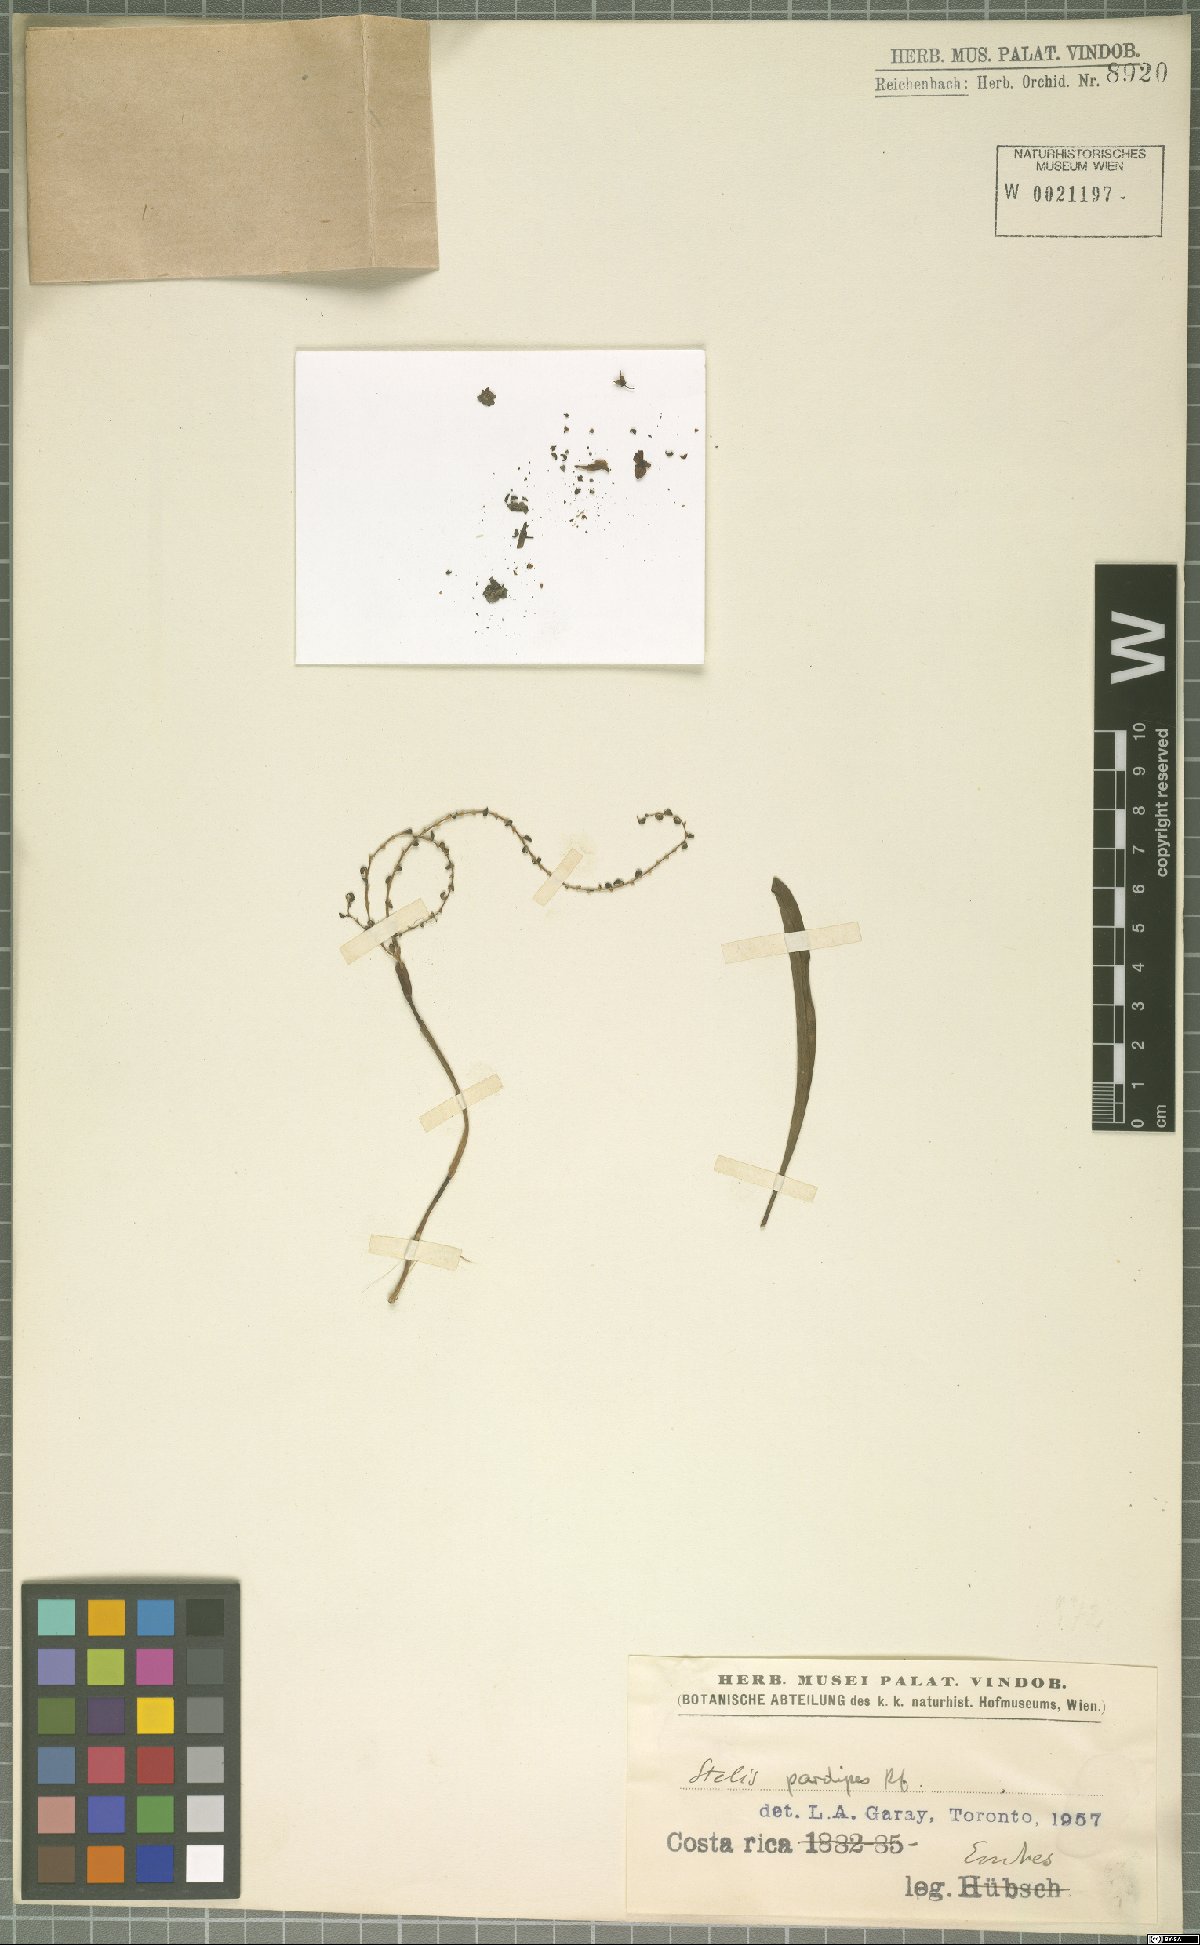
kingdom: Plantae
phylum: Tracheophyta
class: Liliopsida
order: Asparagales
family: Orchidaceae
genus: Stelis
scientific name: Stelis pardipes
